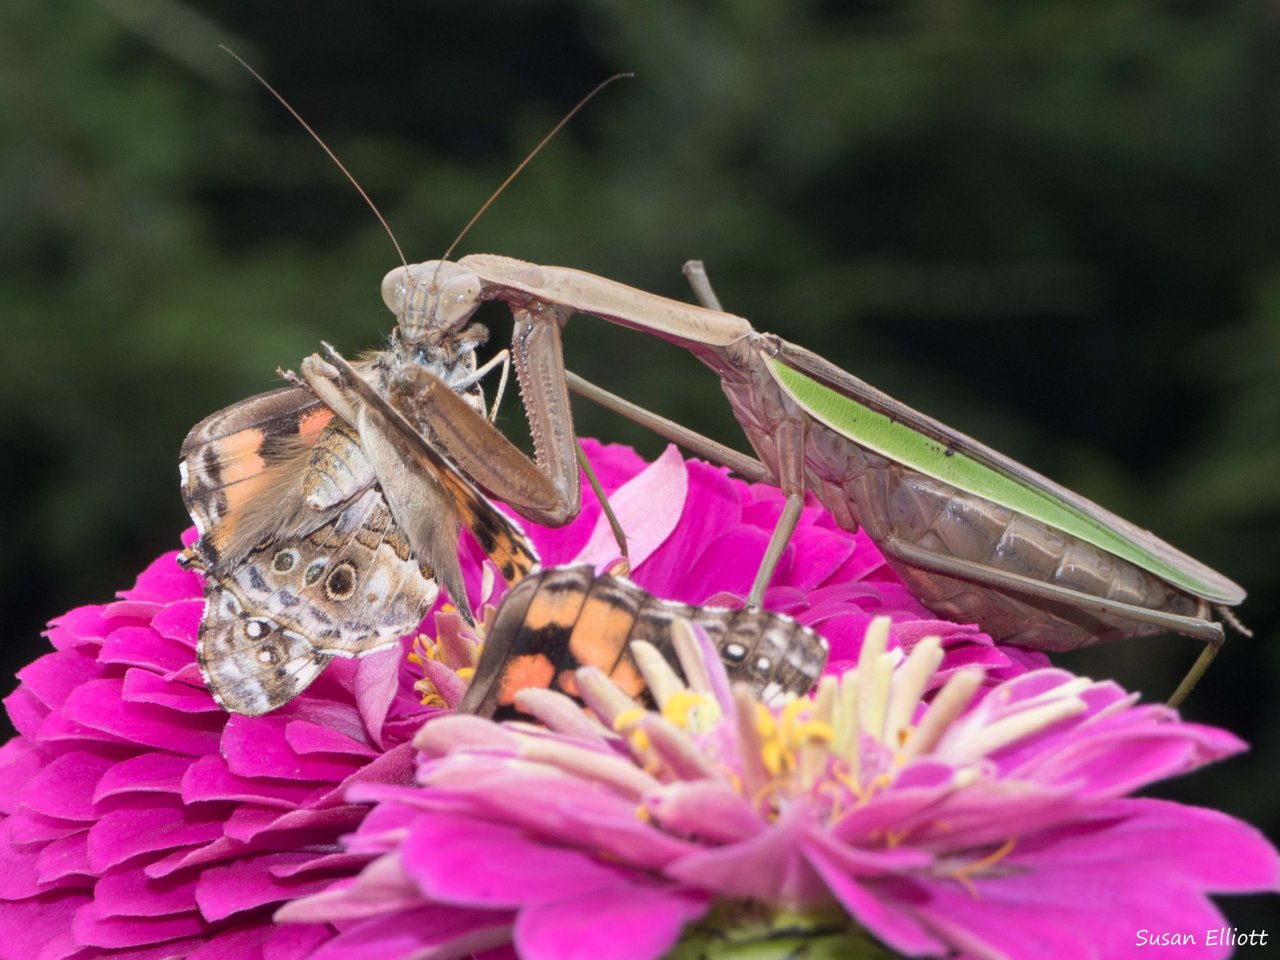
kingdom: Animalia
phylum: Arthropoda
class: Insecta
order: Lepidoptera
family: Nymphalidae
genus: Vanessa
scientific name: Vanessa cardui
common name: Painted Lady
